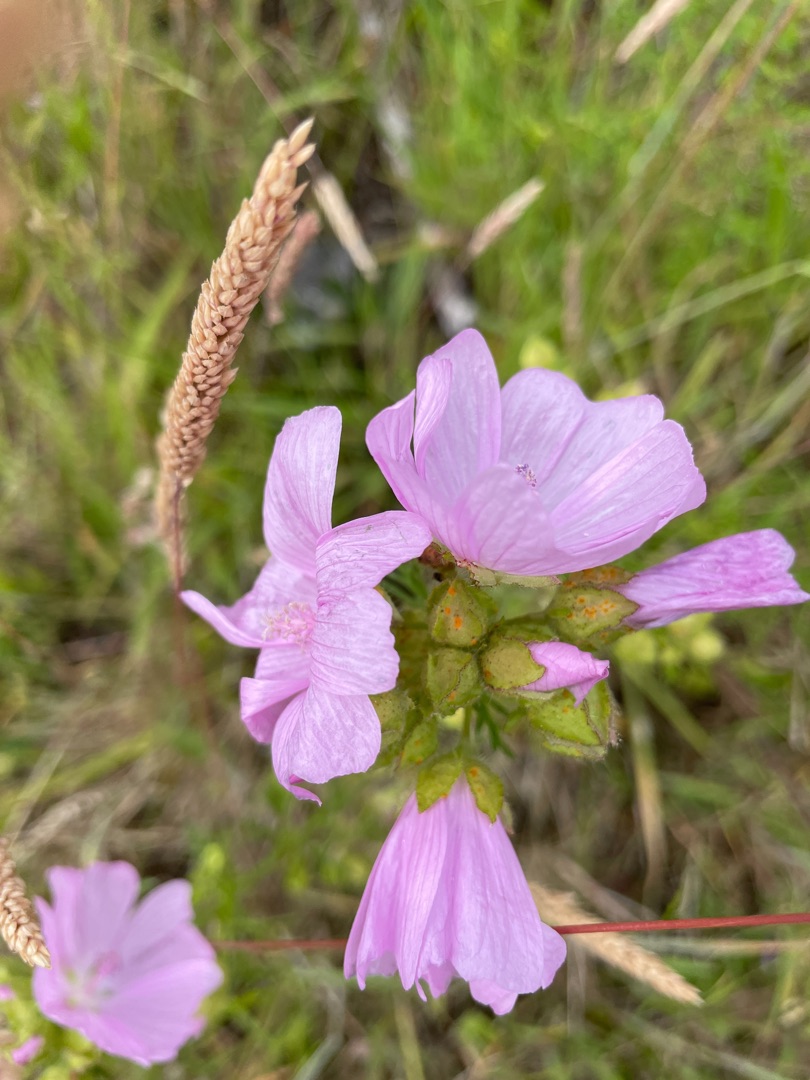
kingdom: Plantae
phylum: Tracheophyta
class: Magnoliopsida
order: Malvales
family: Malvaceae
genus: Malva
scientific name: Malva moschata
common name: Moskus-katost
